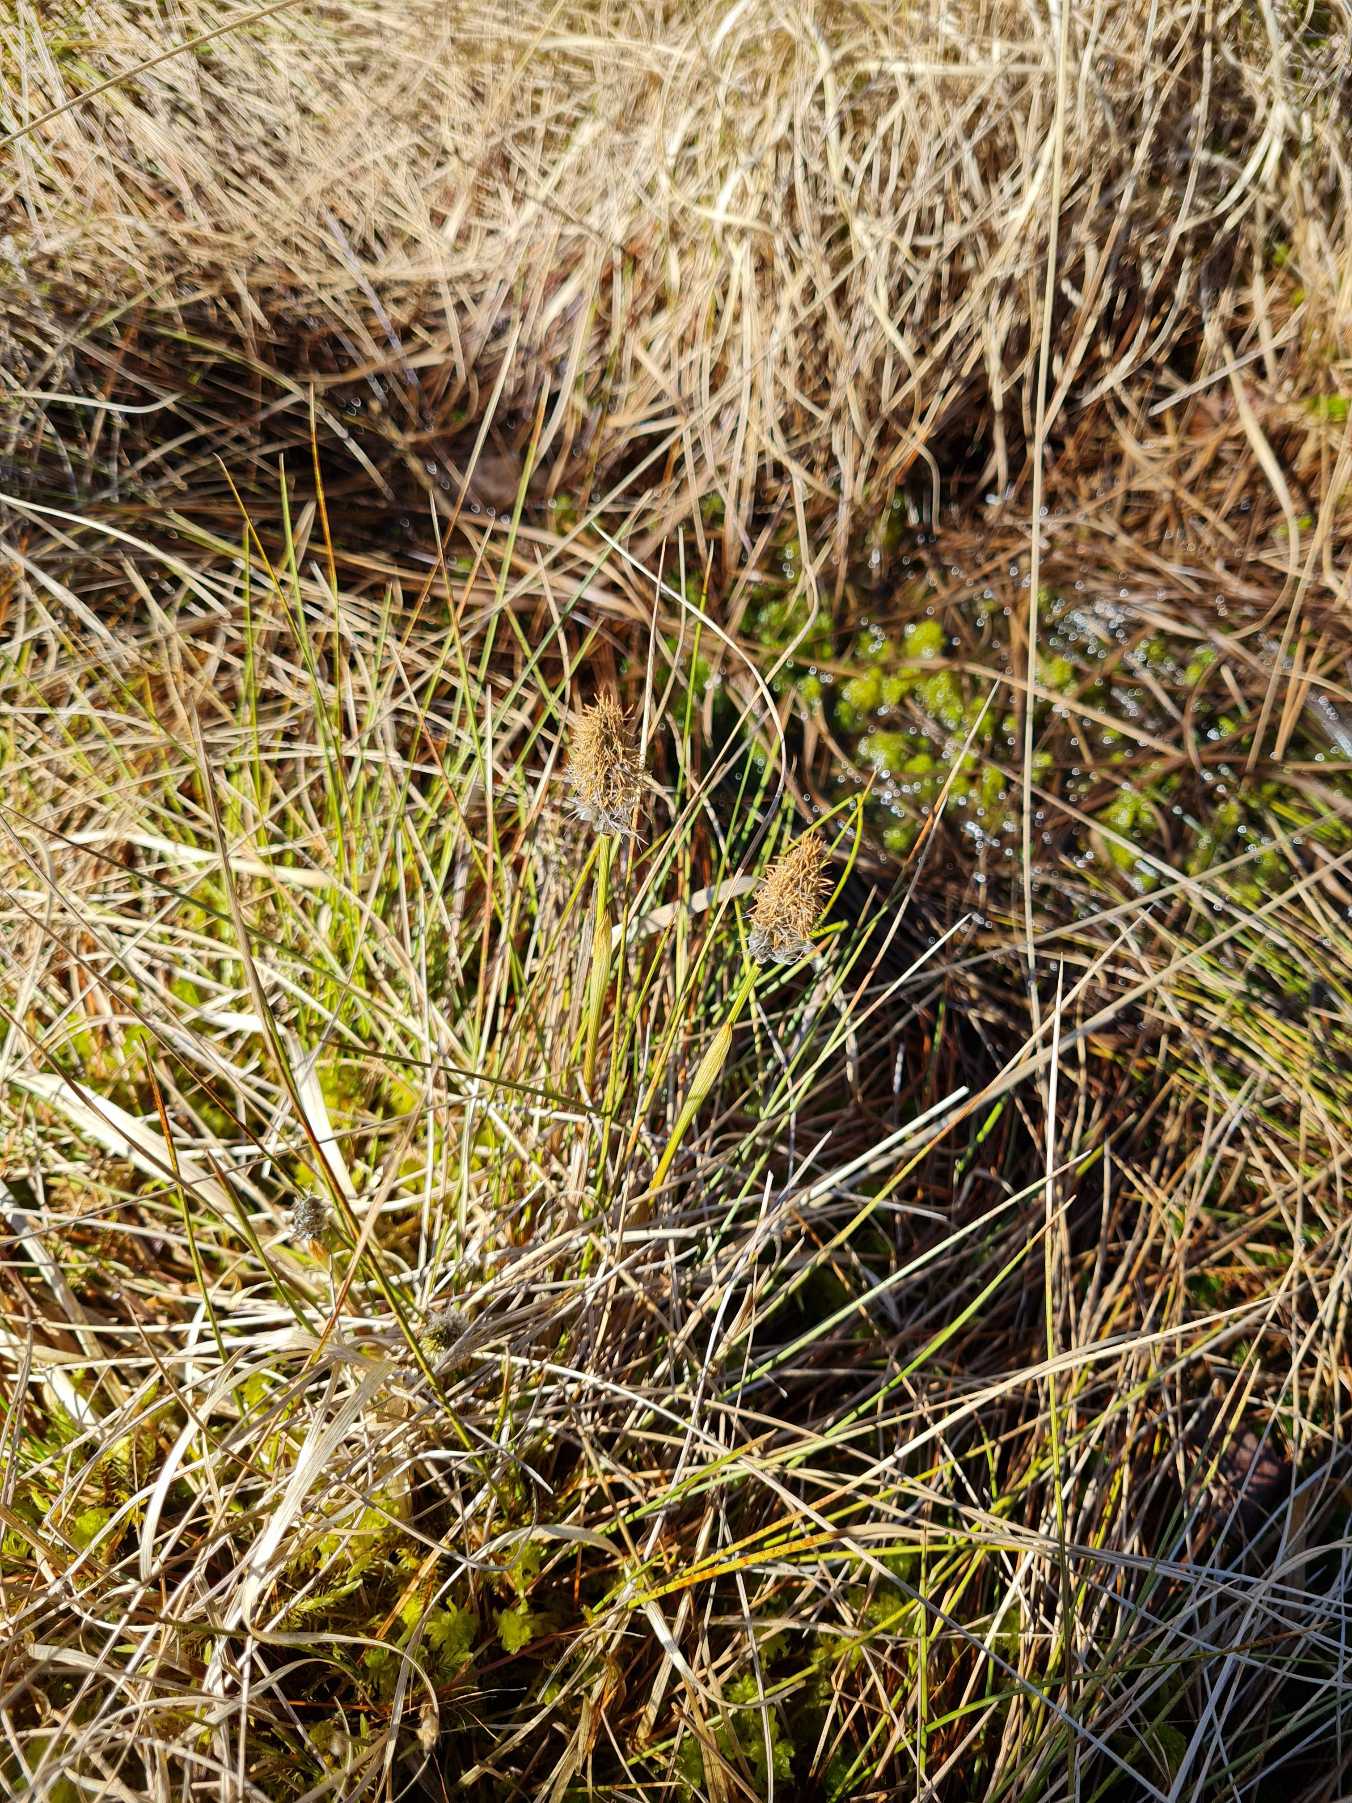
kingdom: Plantae
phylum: Tracheophyta
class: Liliopsida
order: Poales
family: Cyperaceae
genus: Eriophorum
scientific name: Eriophorum vaginatum
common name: Tue-kæruld
